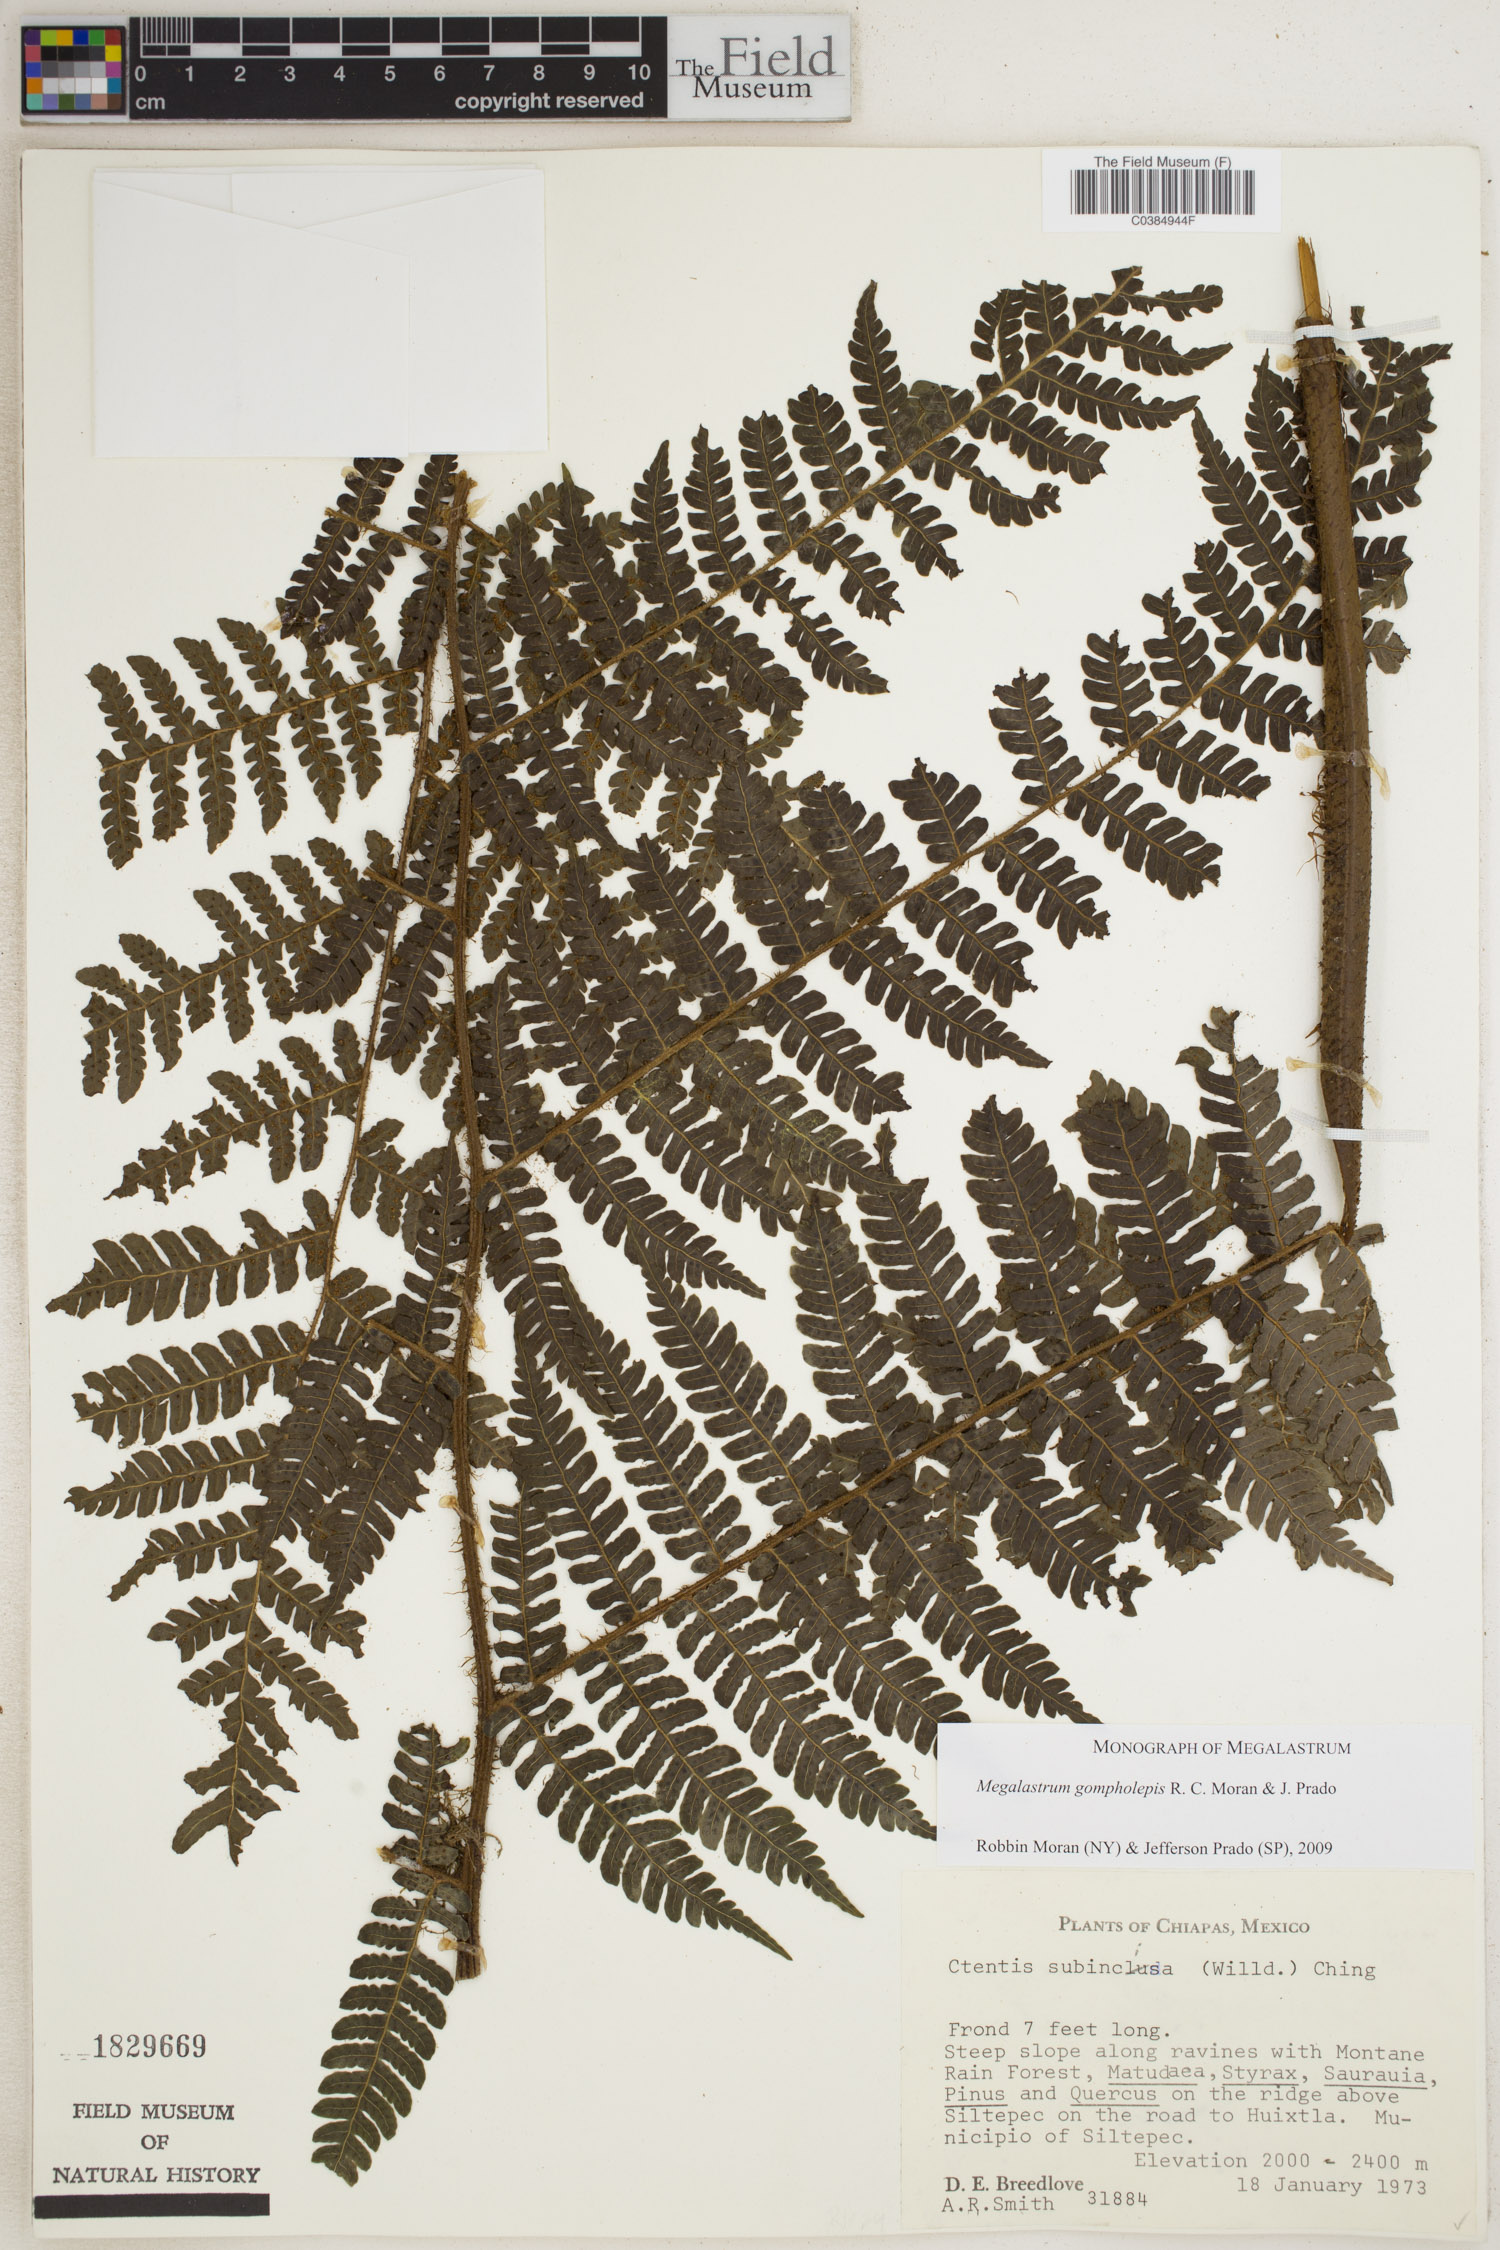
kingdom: Plantae
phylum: Tracheophyta
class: Polypodiopsida
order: Polypodiales
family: Dryopteridaceae
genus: Megalastrum
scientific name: Megalastrum gompholepis
